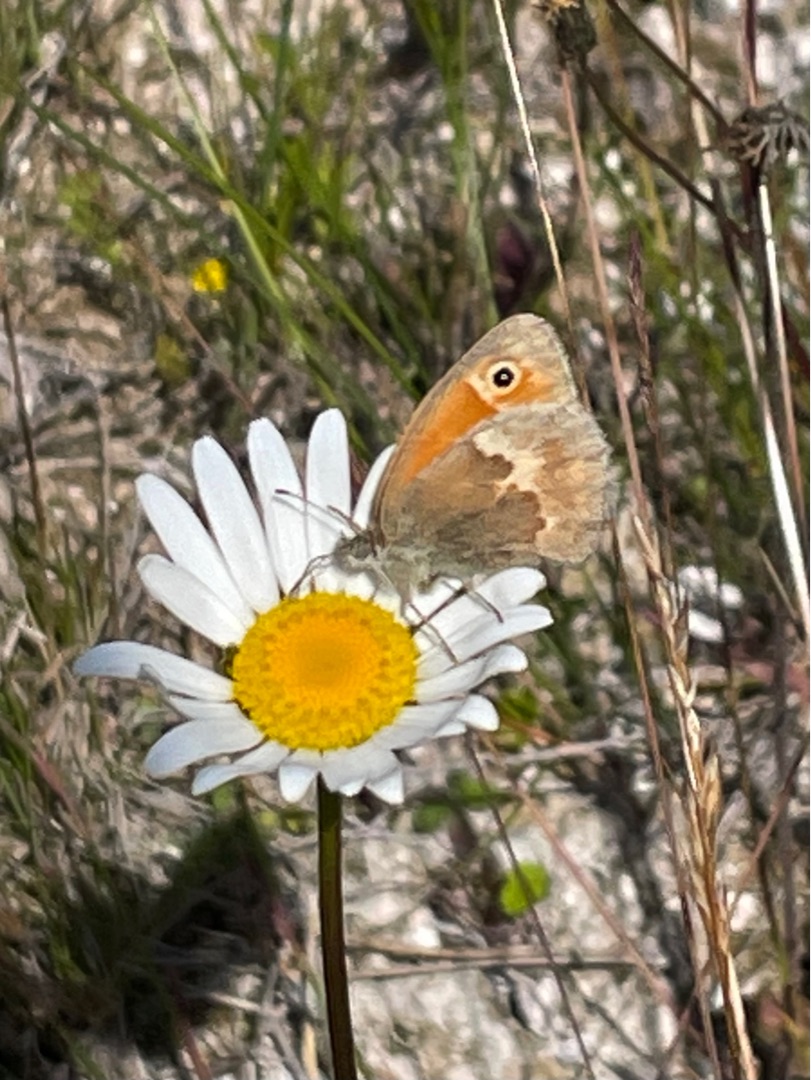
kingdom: Animalia
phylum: Arthropoda
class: Insecta
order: Lepidoptera
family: Nymphalidae
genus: Coenonympha
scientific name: Coenonympha pamphilus
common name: Okkergul randøje
